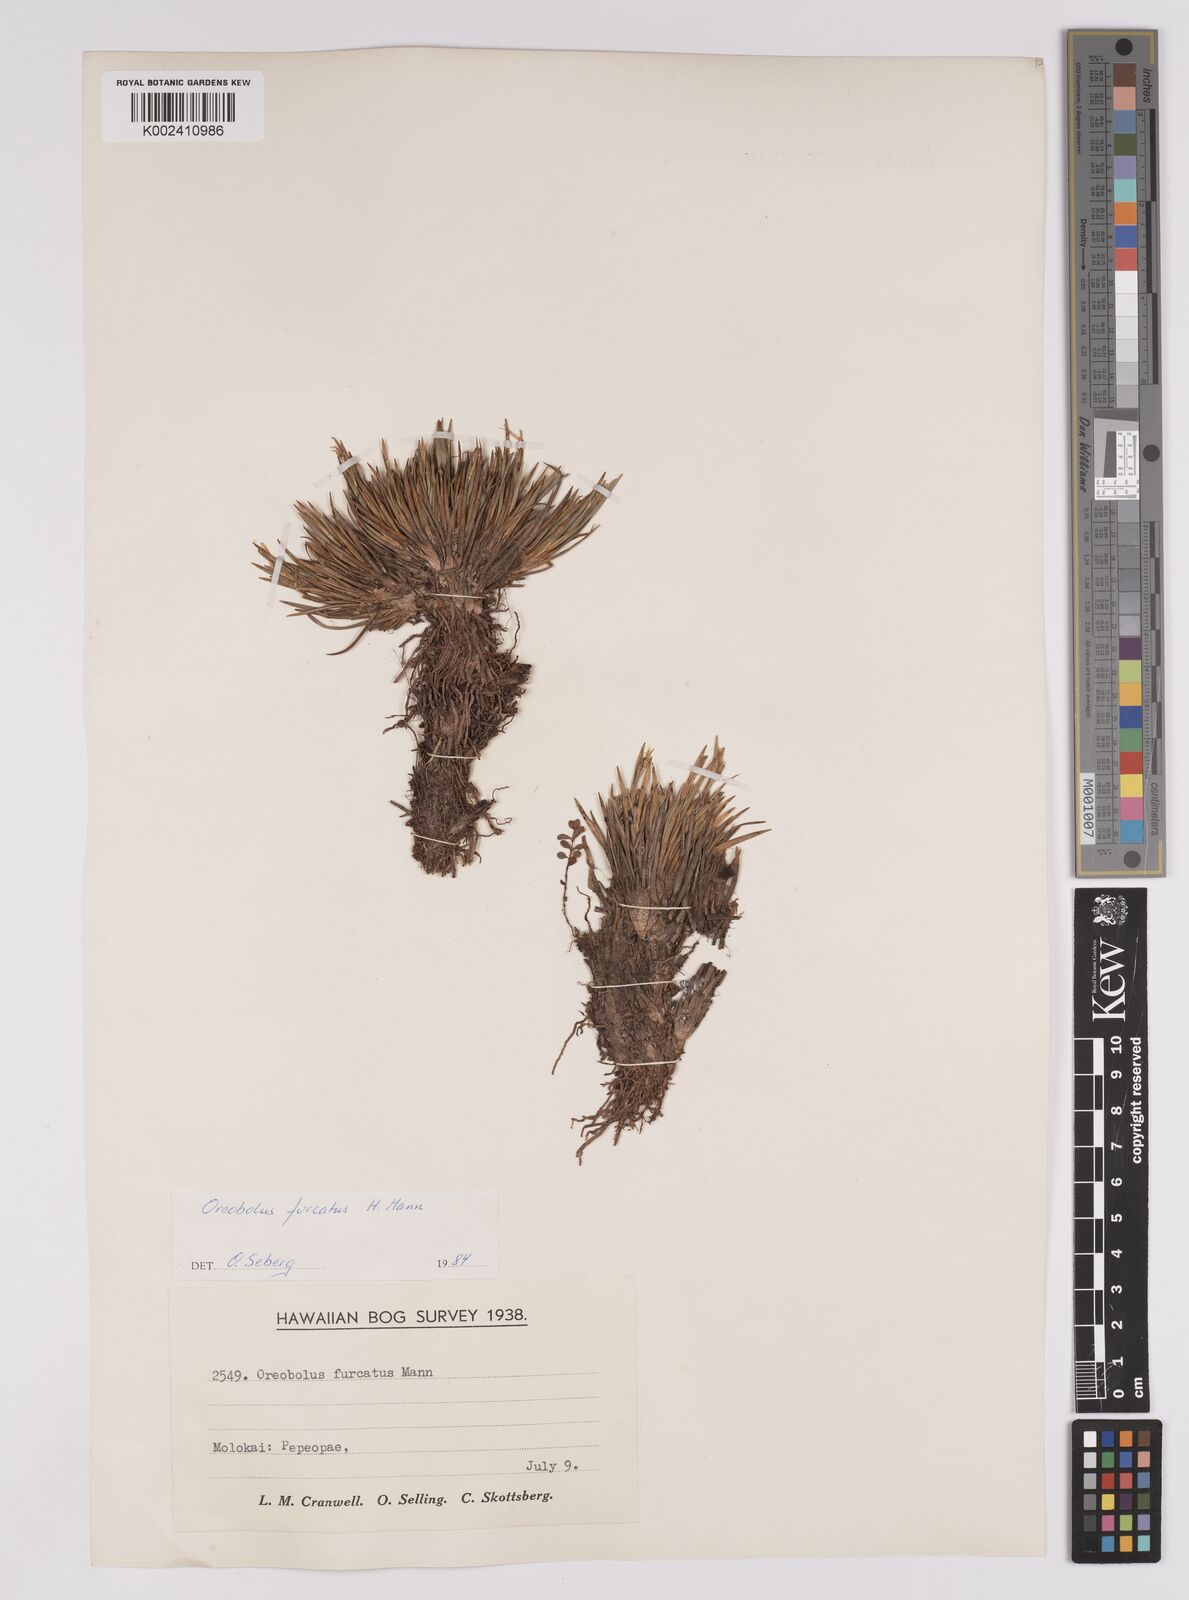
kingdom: Plantae
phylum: Tracheophyta
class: Liliopsida
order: Poales
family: Cyperaceae
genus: Oreobolus
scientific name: Oreobolus furcatus
